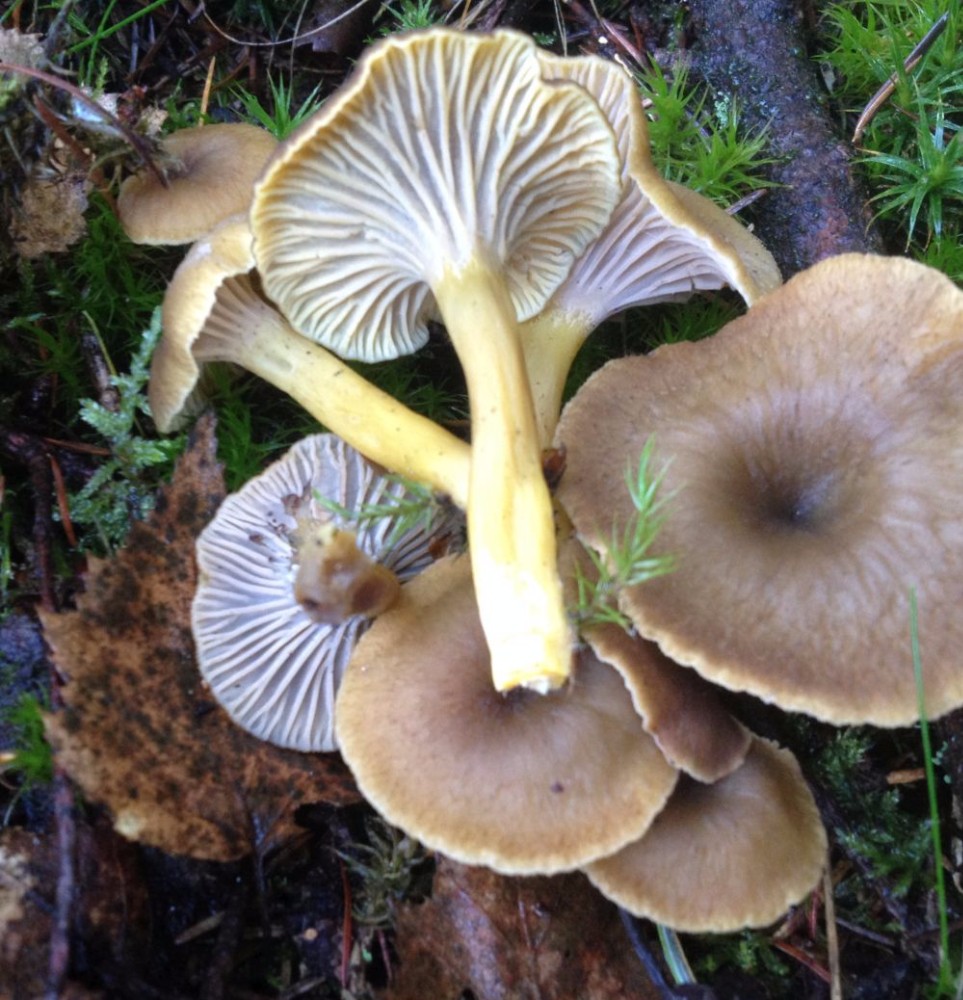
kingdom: Fungi
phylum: Basidiomycota
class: Agaricomycetes
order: Cantharellales
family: Hydnaceae
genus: Craterellus
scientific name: Craterellus tubaeformis
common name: tragt-kantarel
